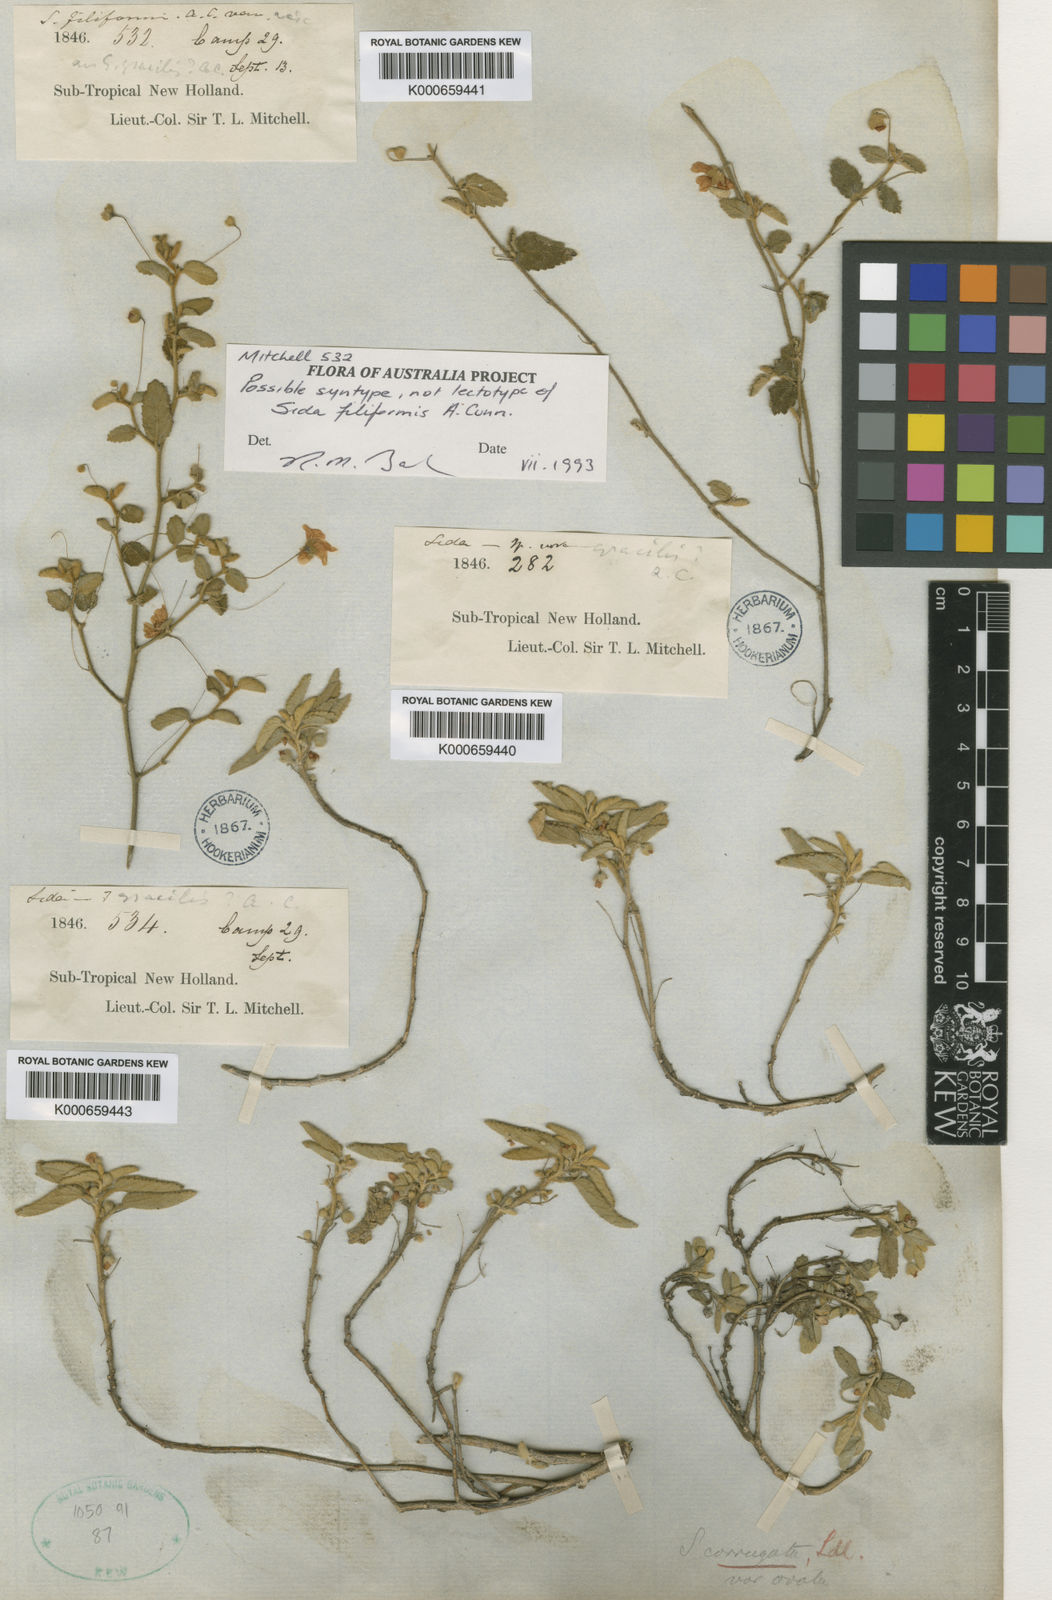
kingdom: Plantae
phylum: Tracheophyta
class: Magnoliopsida
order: Malvales
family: Malvaceae
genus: Sida
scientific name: Sida corrugata
